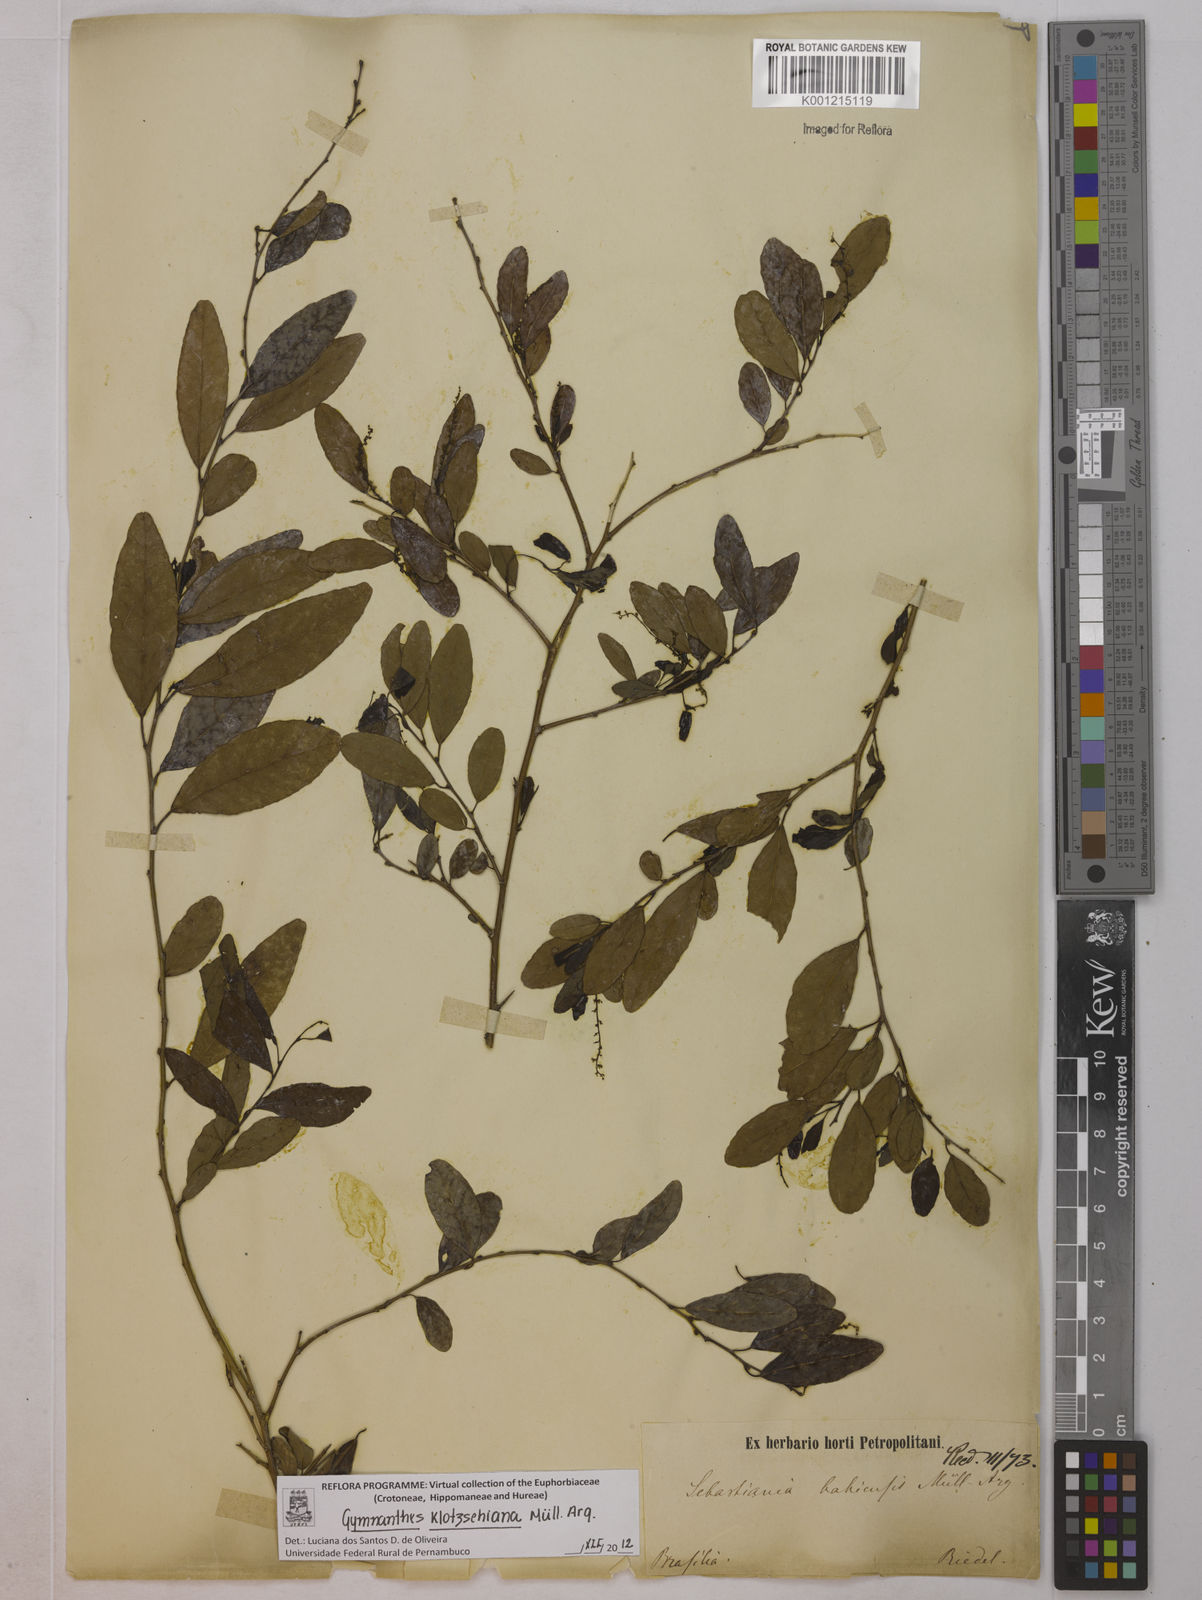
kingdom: Plantae
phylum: Tracheophyta
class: Magnoliopsida
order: Malpighiales
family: Euphorbiaceae
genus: Gymnanthes
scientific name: Gymnanthes
